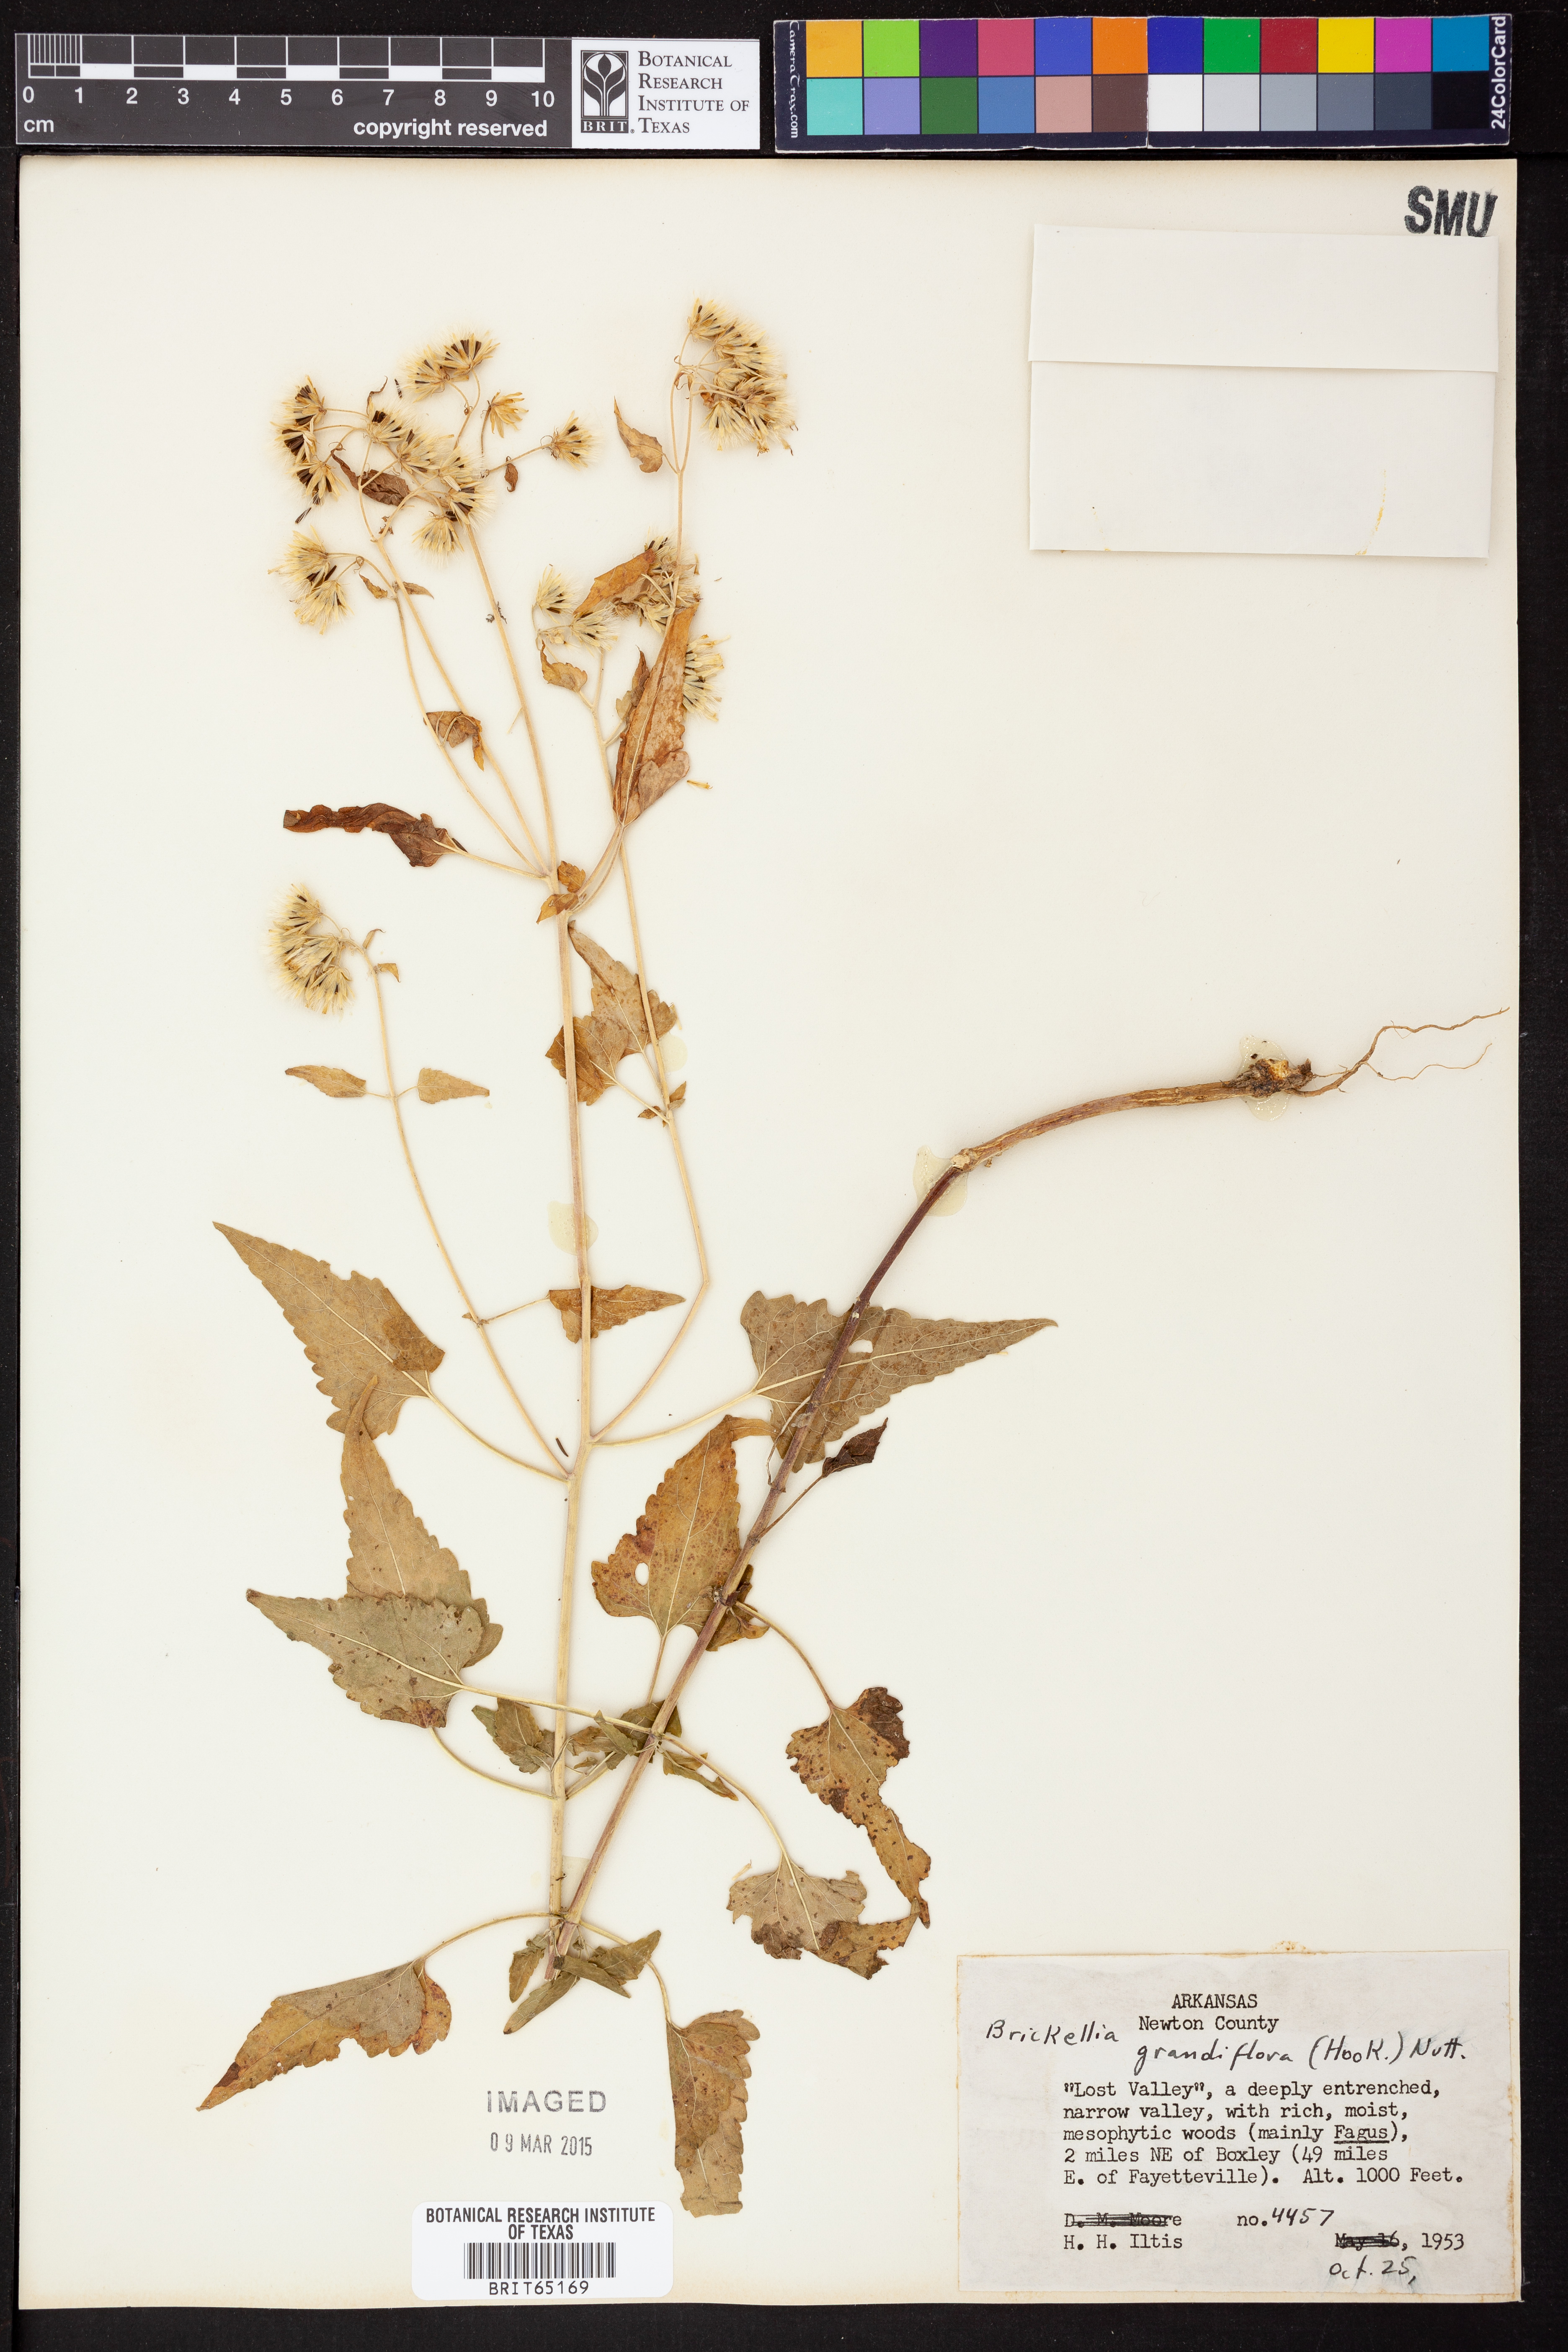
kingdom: Plantae
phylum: Tracheophyta
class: Magnoliopsida
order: Asterales
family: Asteraceae
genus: Brickellia
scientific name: Brickellia grandiflora
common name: Large-flowered brickellia
